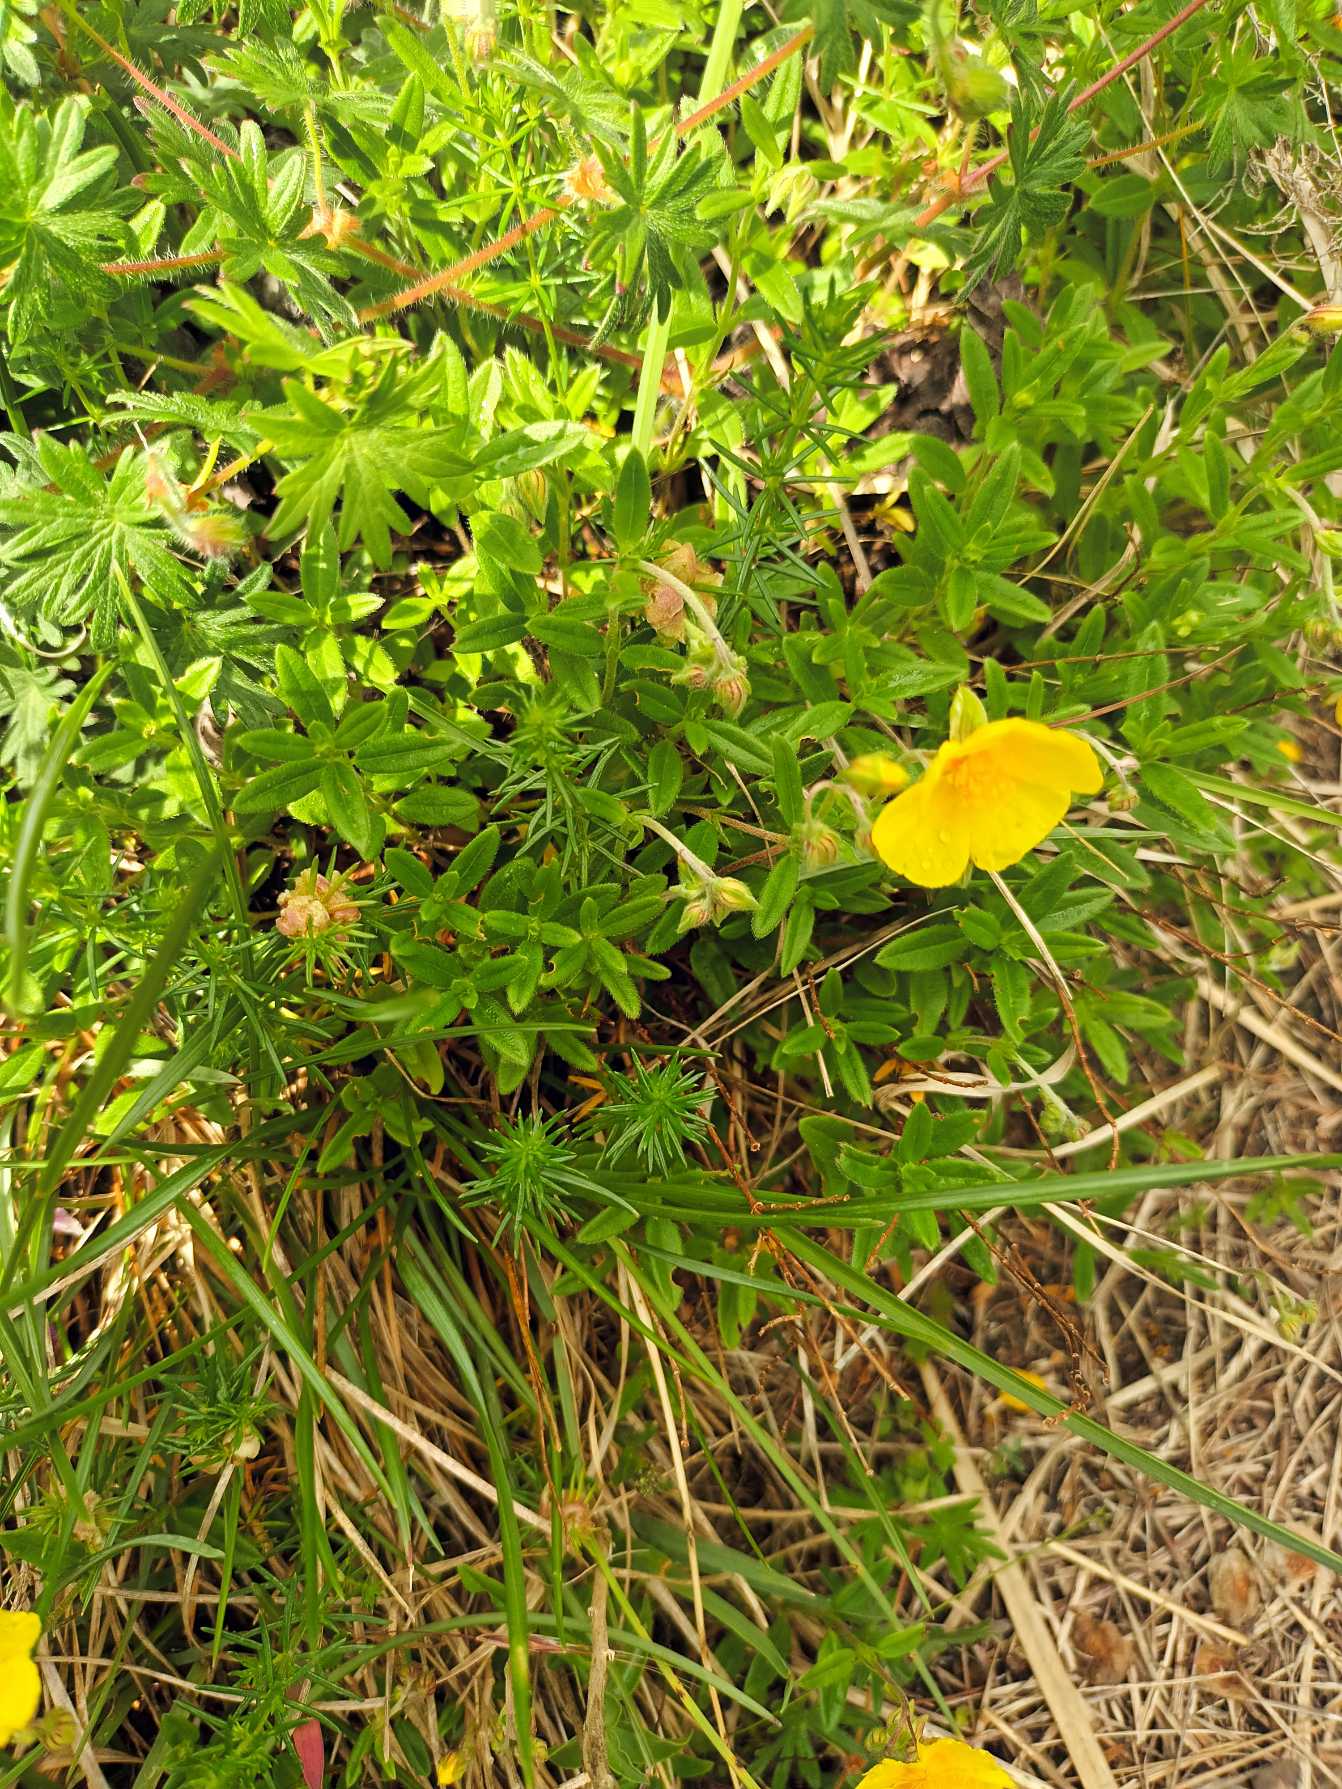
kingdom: Plantae
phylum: Tracheophyta
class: Magnoliopsida
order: Malvales
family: Cistaceae
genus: Helianthemum
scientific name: Helianthemum nummularium
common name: Bakke-soløje
